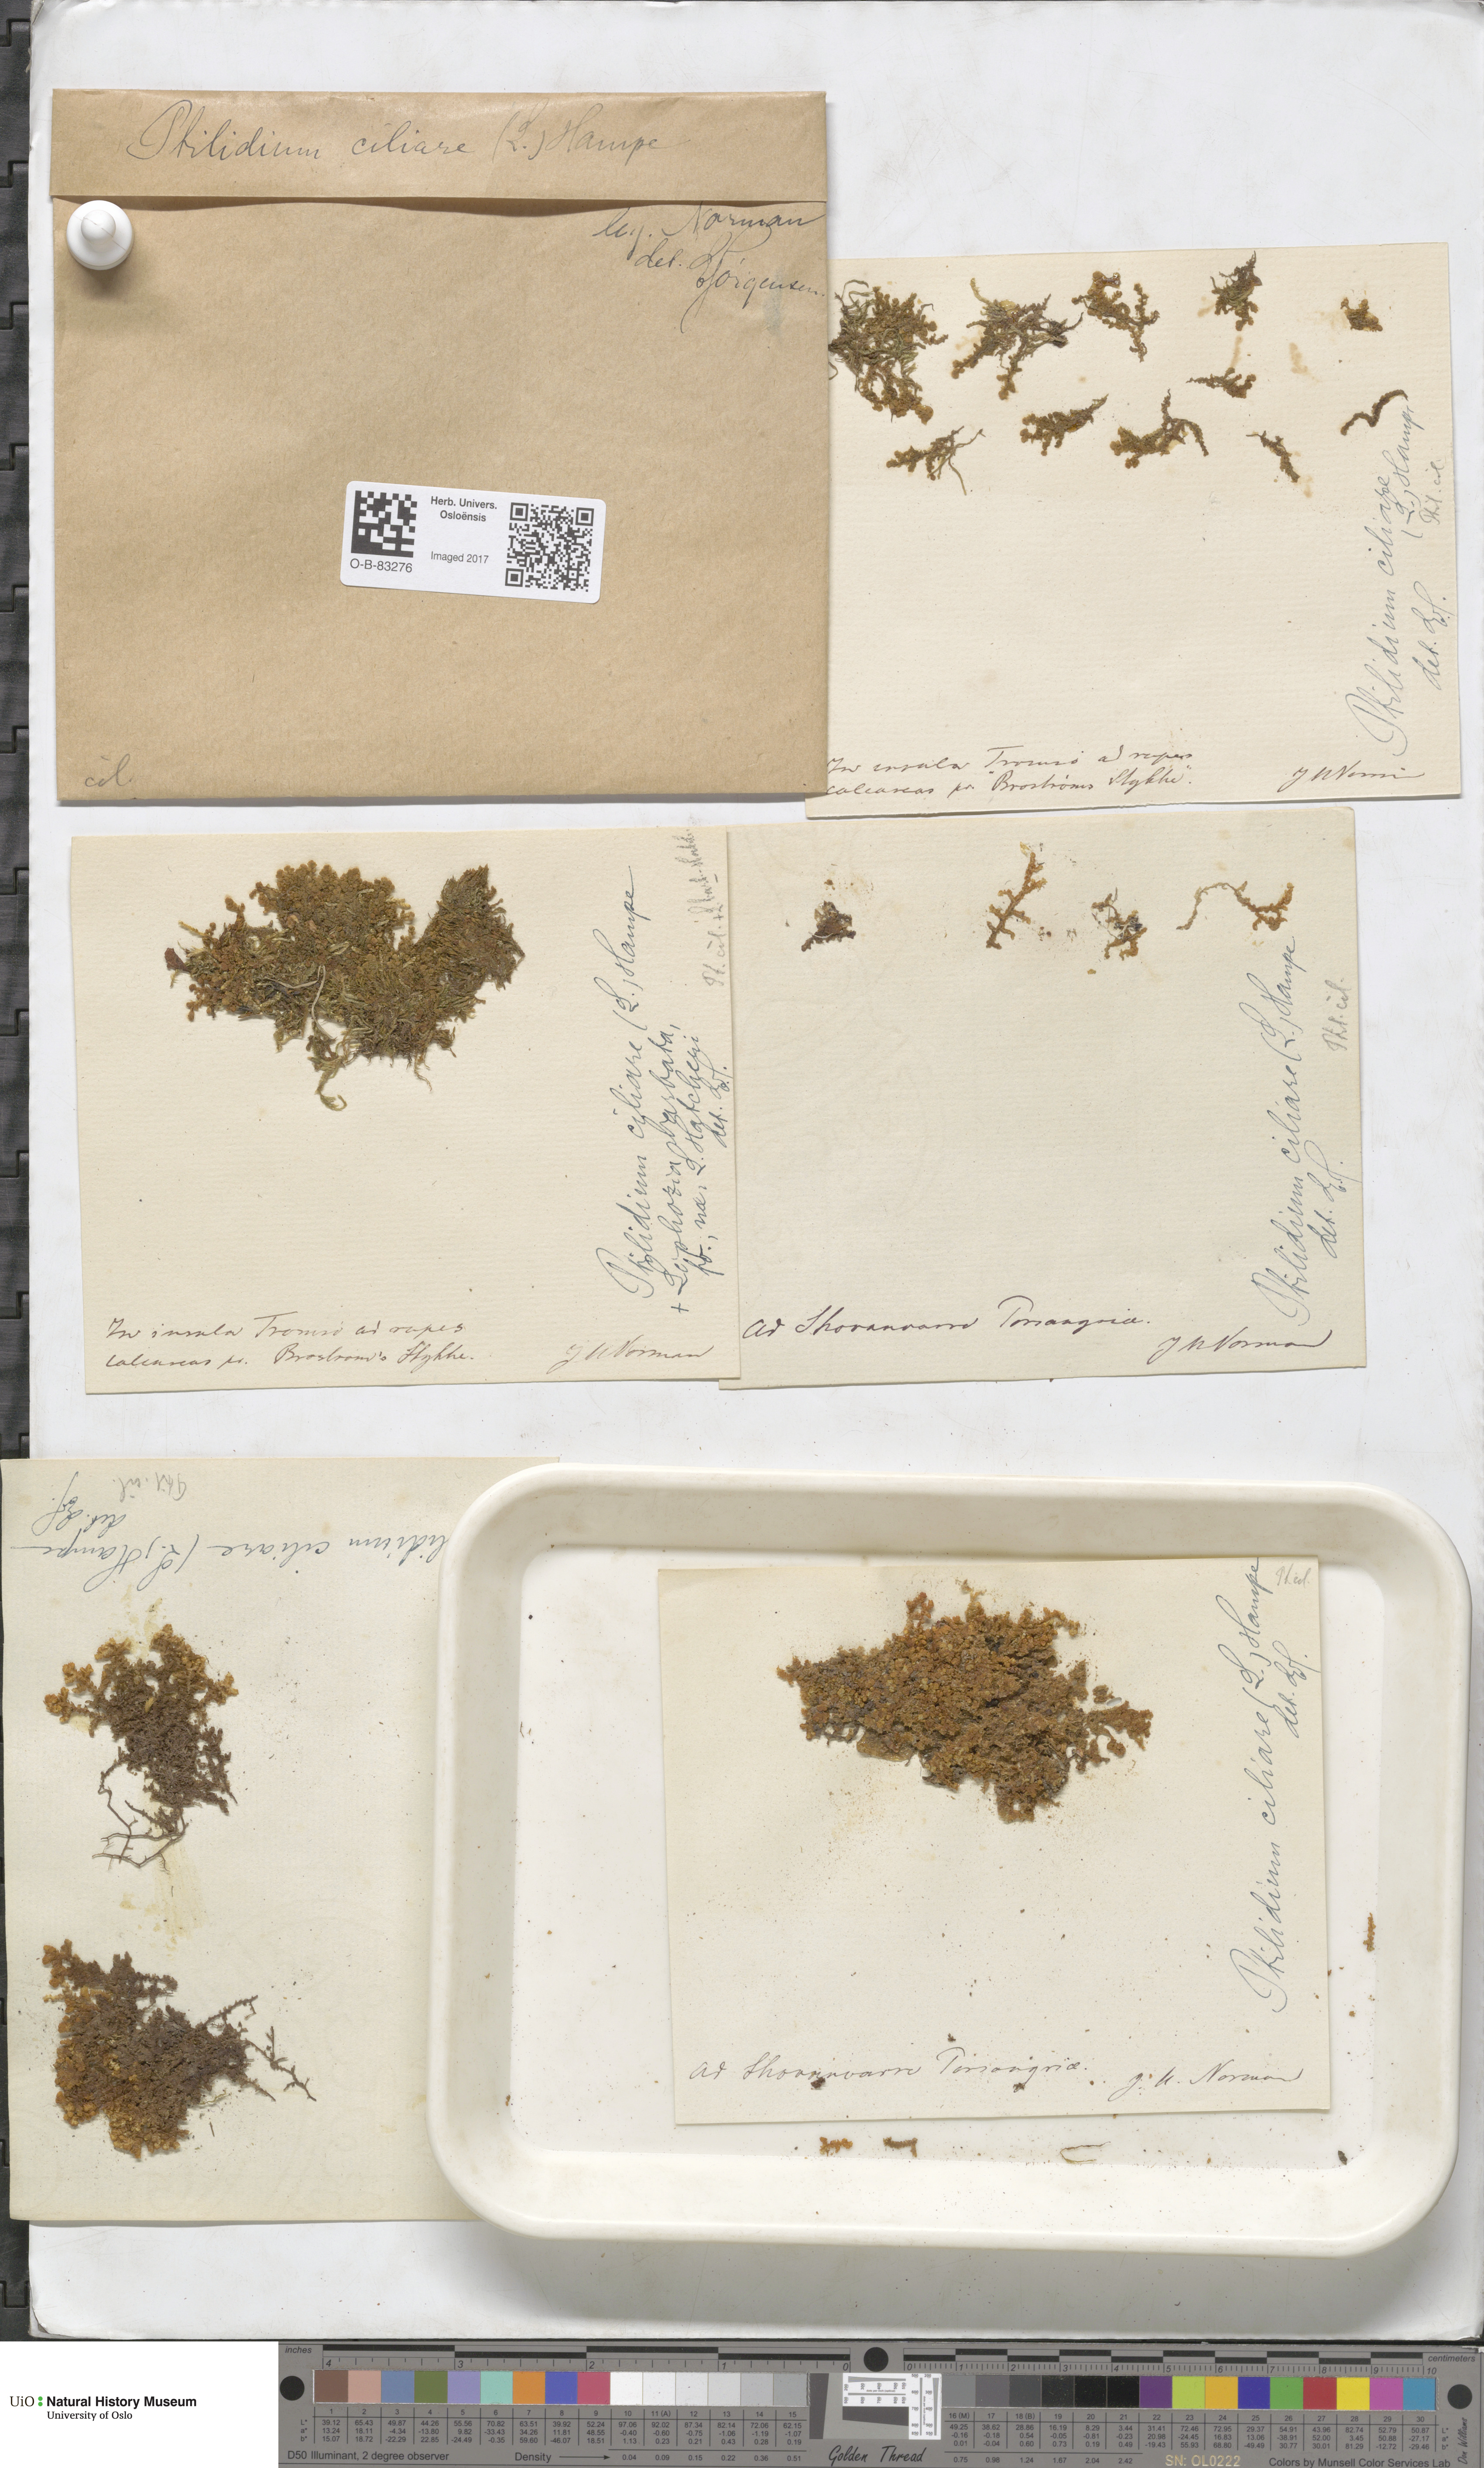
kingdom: Plantae
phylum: Marchantiophyta
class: Jungermanniopsida
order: Ptilidiales
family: Ptilidiaceae
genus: Ptilidium
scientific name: Ptilidium ciliare
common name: Ciliate fringewort
